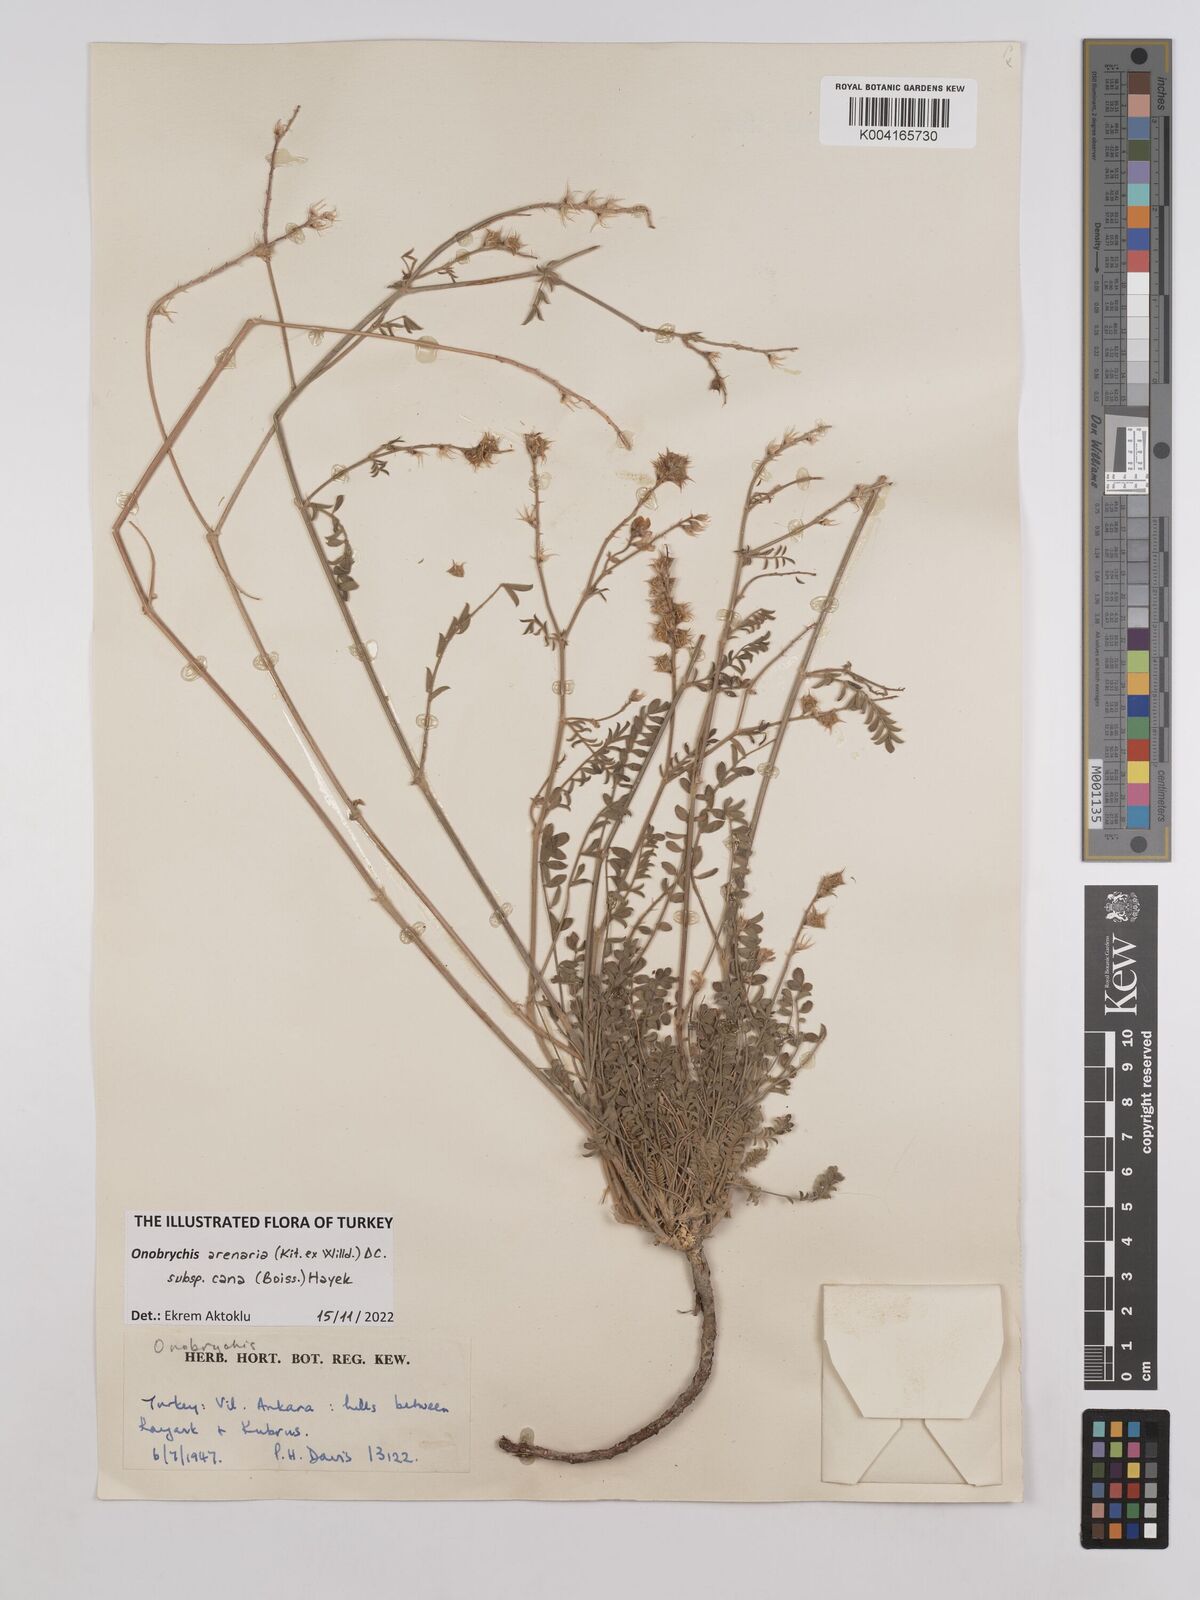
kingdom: Plantae
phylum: Tracheophyta
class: Magnoliopsida
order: Fabales
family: Fabaceae
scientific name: Fabaceae
